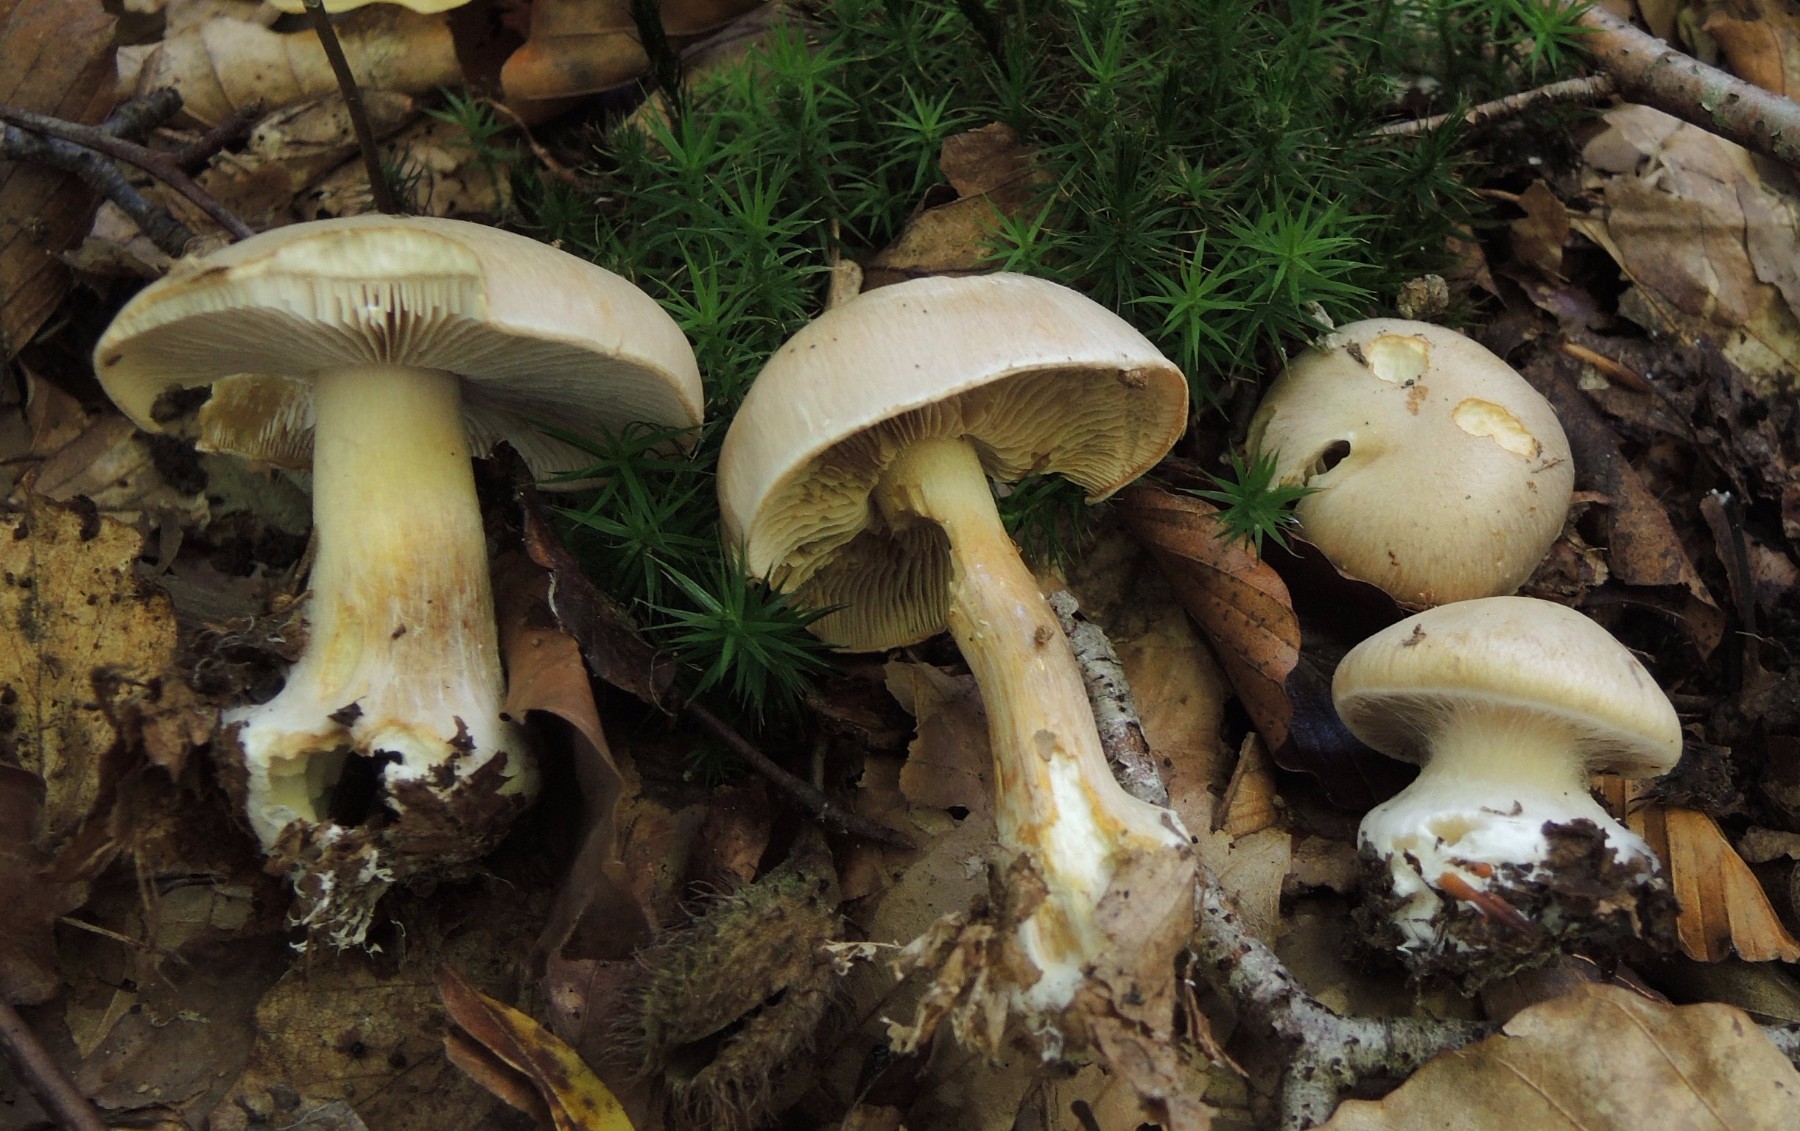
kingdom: Fungi
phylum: Basidiomycota
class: Agaricomycetes
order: Agaricales
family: Cortinariaceae
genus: Thaxterogaster
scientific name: Thaxterogaster talus
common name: knogle-slørhat
